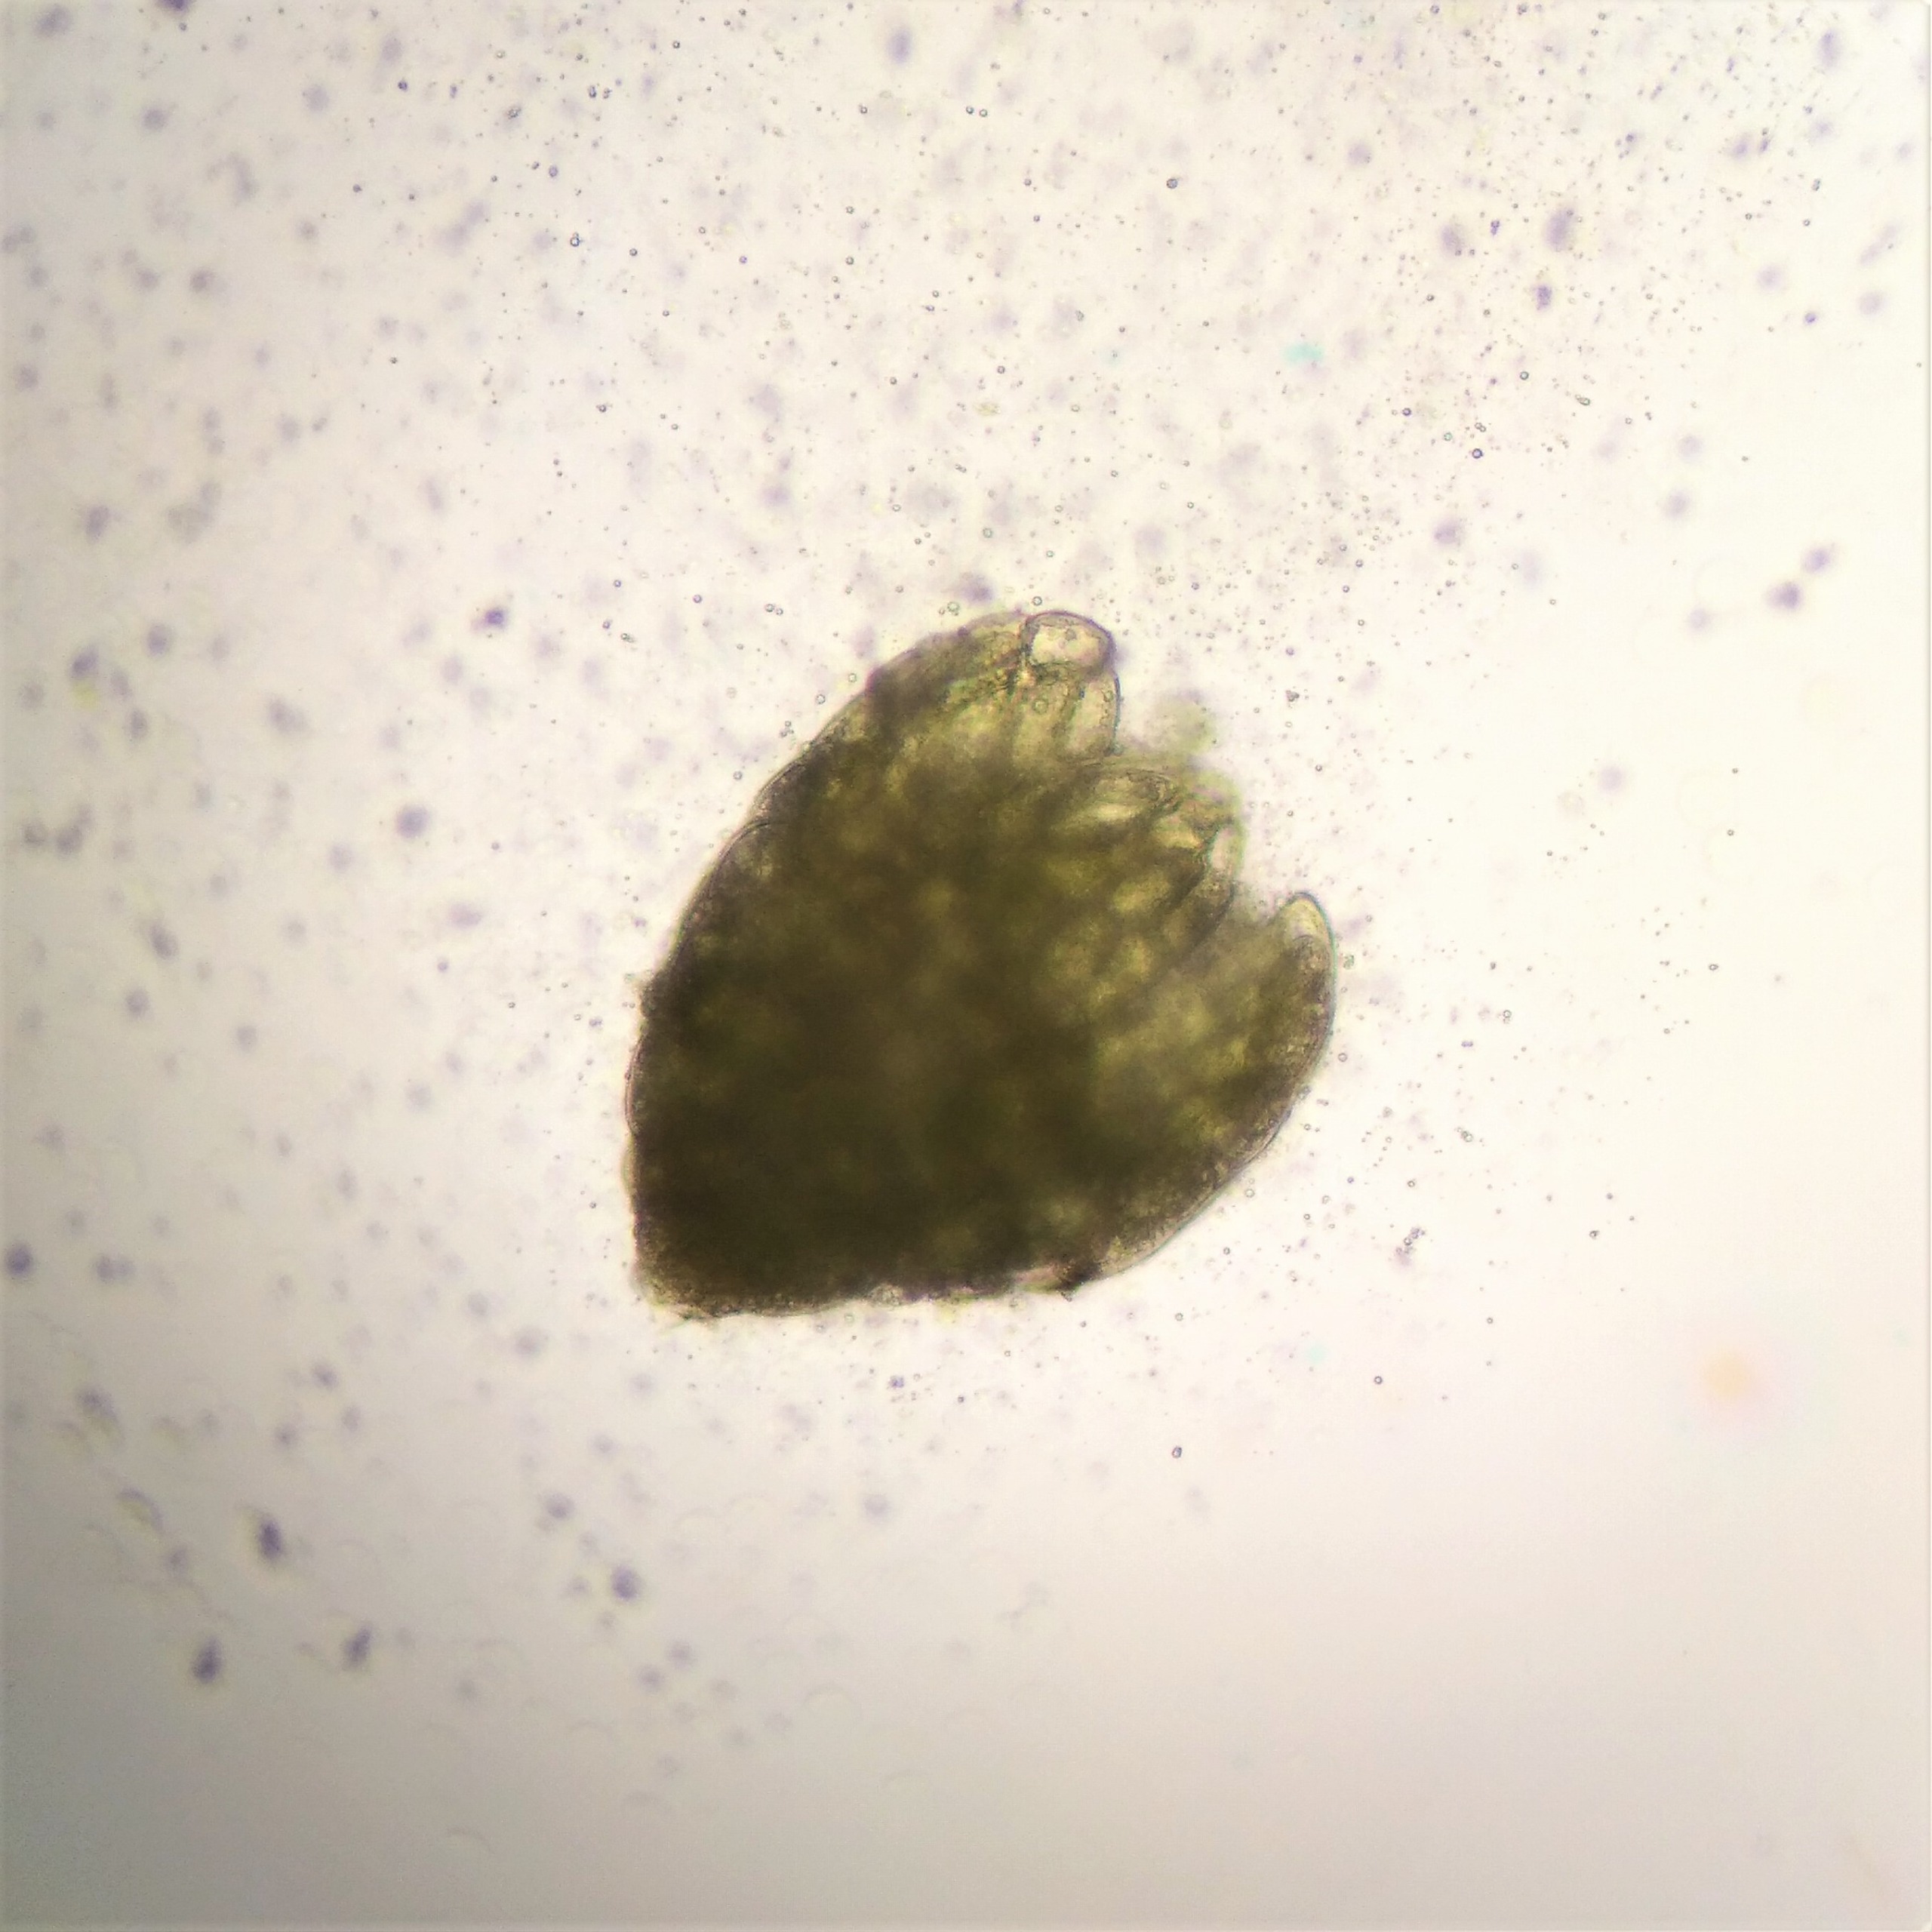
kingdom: Plantae
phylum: Bryophyta
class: Bryopsida
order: Bryales
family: Mniaceae
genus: Pohlia
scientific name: Pohlia bulbifera
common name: Gulkuglet nikkemos
